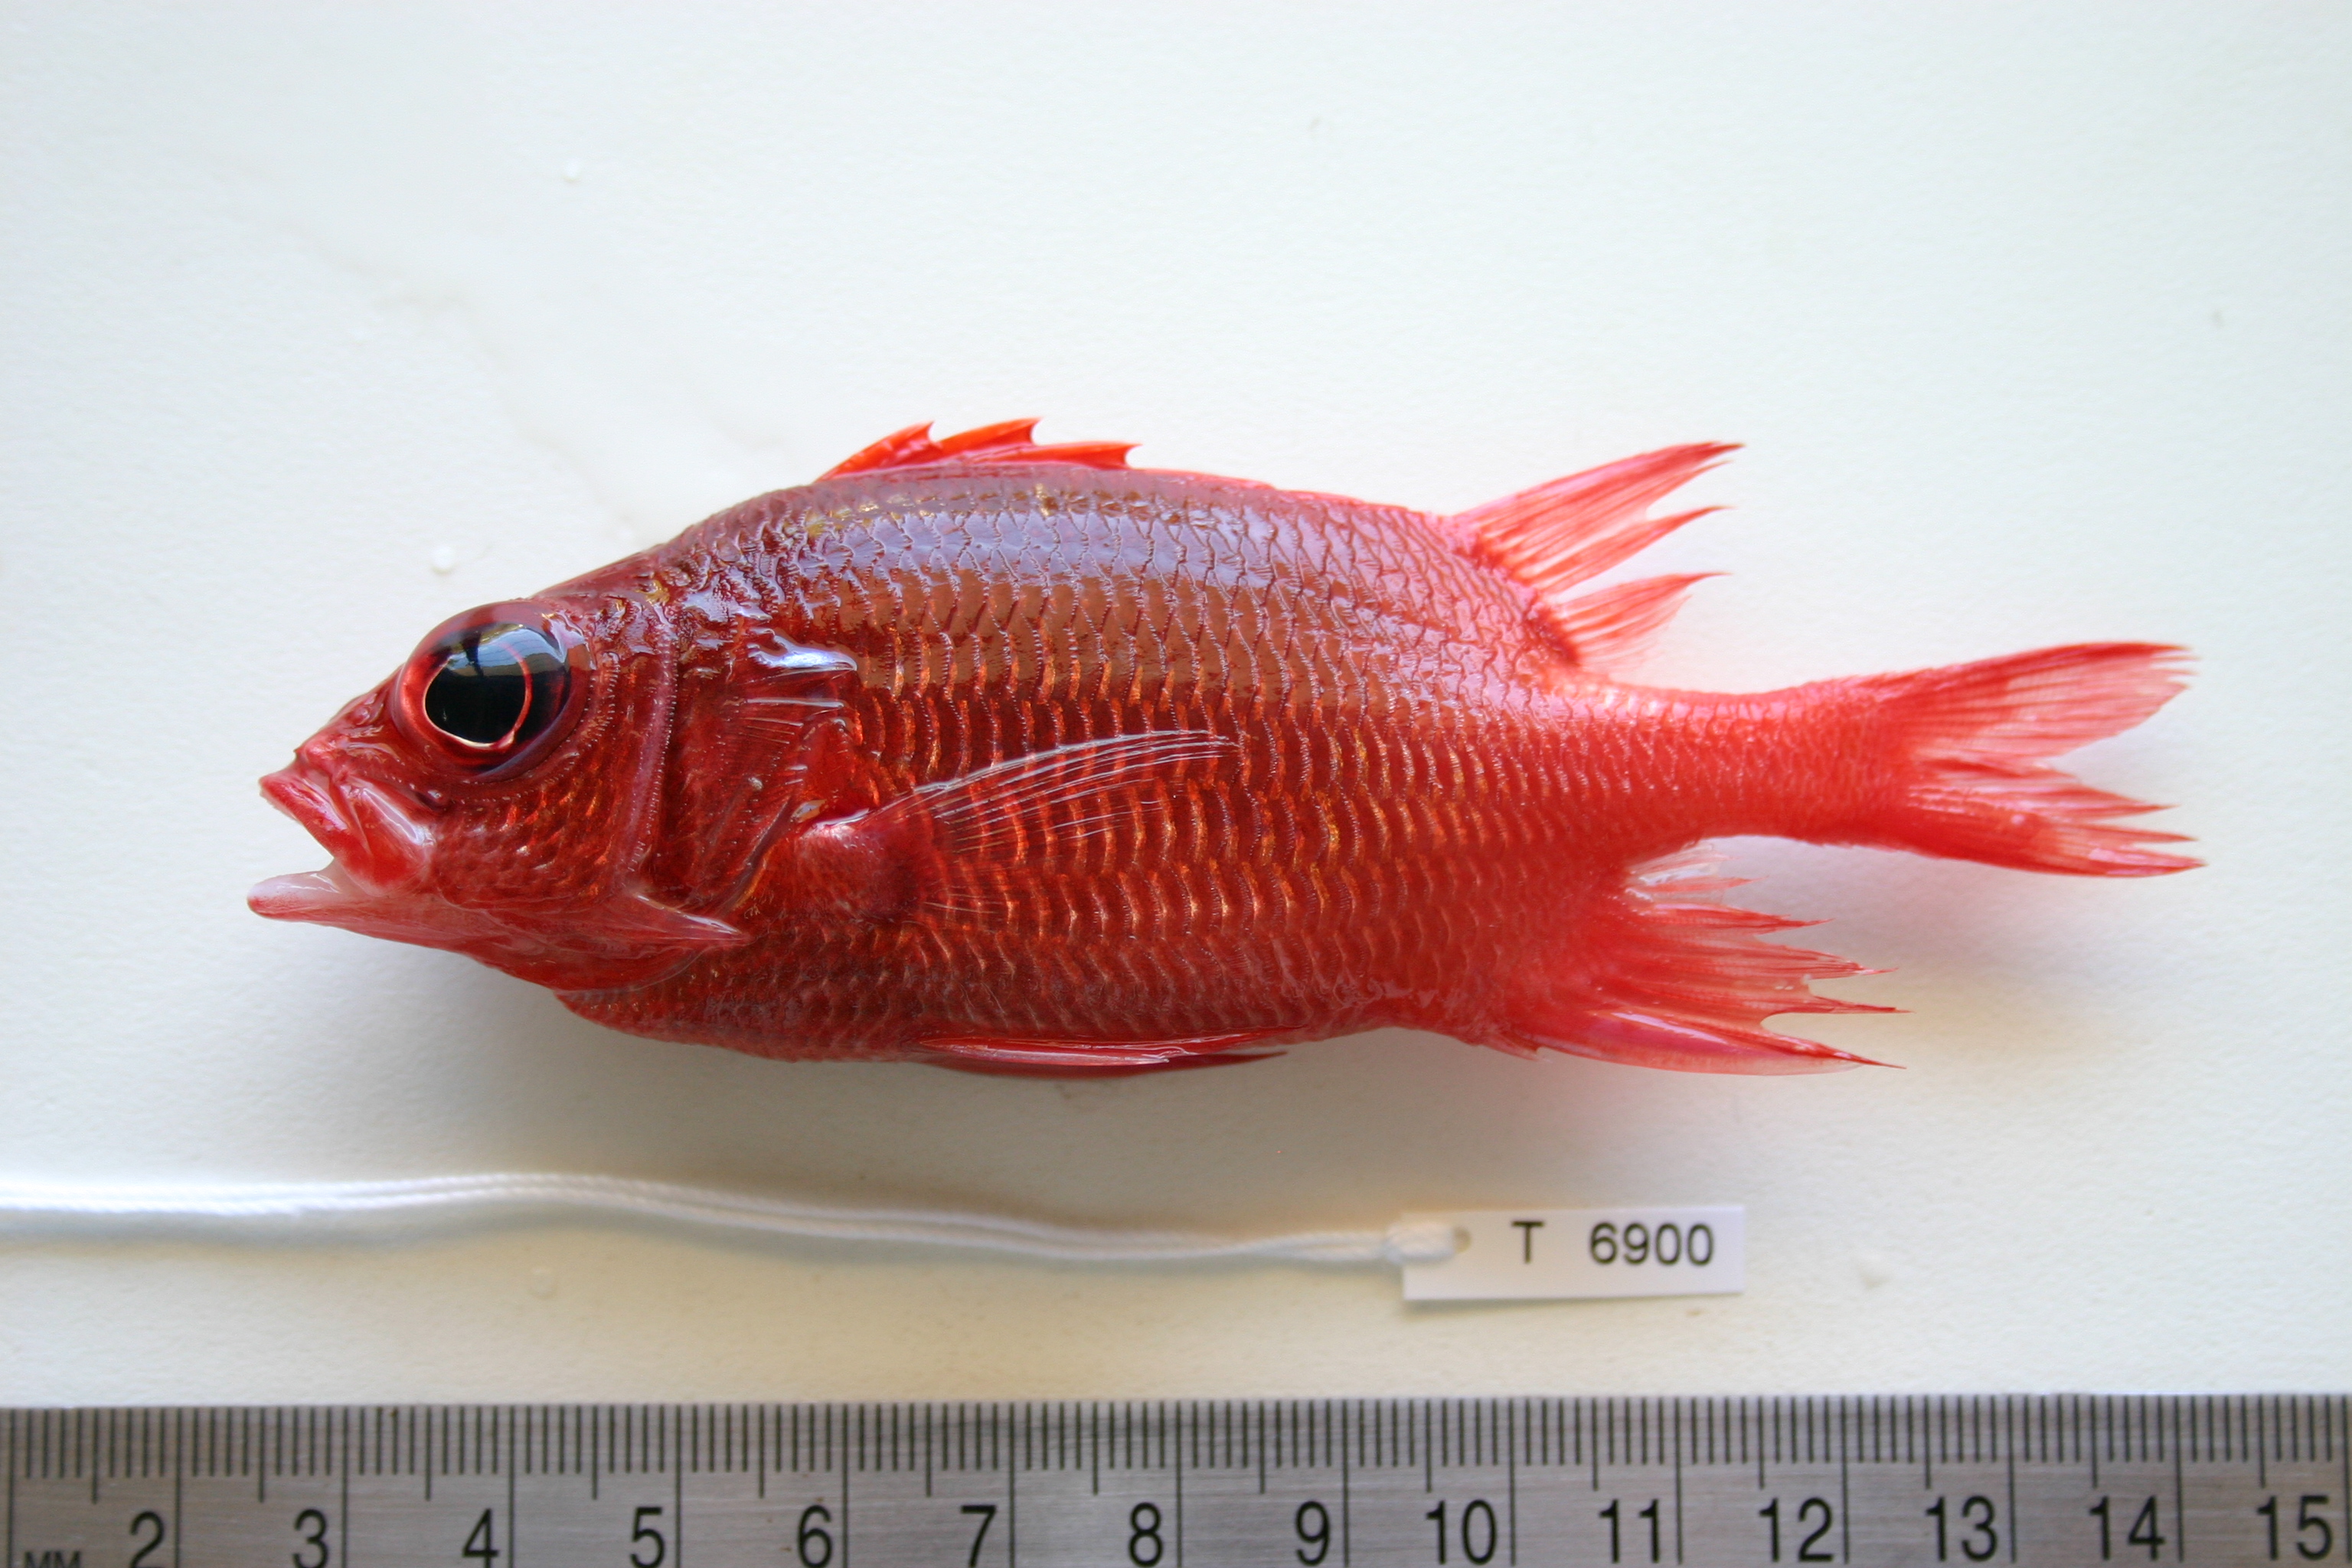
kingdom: Animalia
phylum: Chordata
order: Beryciformes
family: Holocentridae
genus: Sargocentron
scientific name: Sargocentron caudimaculatum
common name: Fanfin soldier
